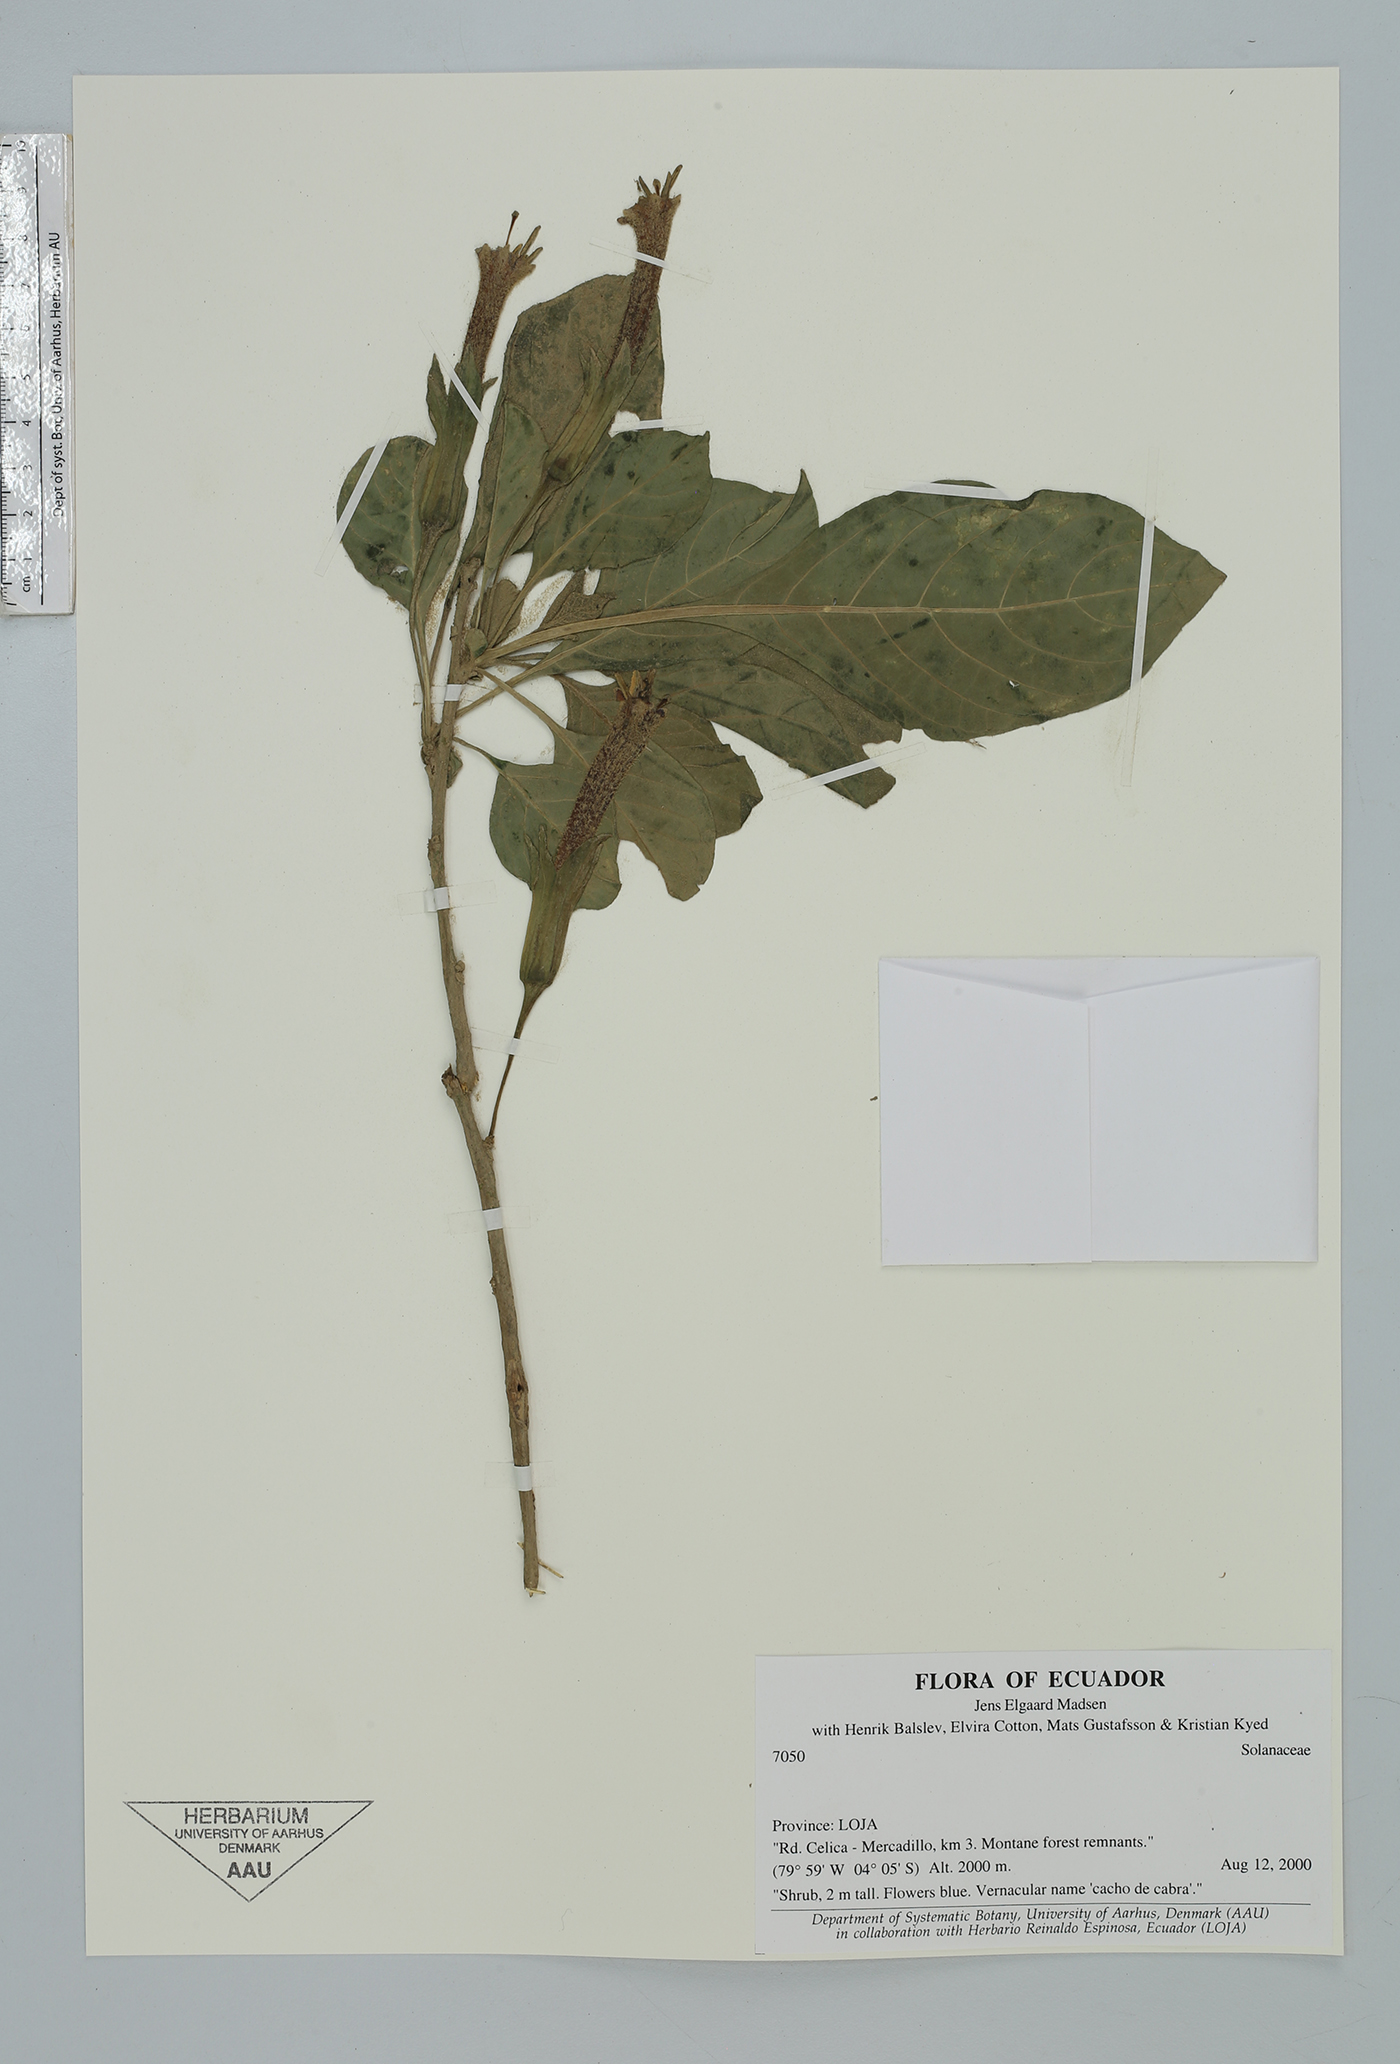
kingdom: Plantae
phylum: Tracheophyta
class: Magnoliopsida
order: Solanales
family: Solanaceae
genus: Iochroma
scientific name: Iochroma
